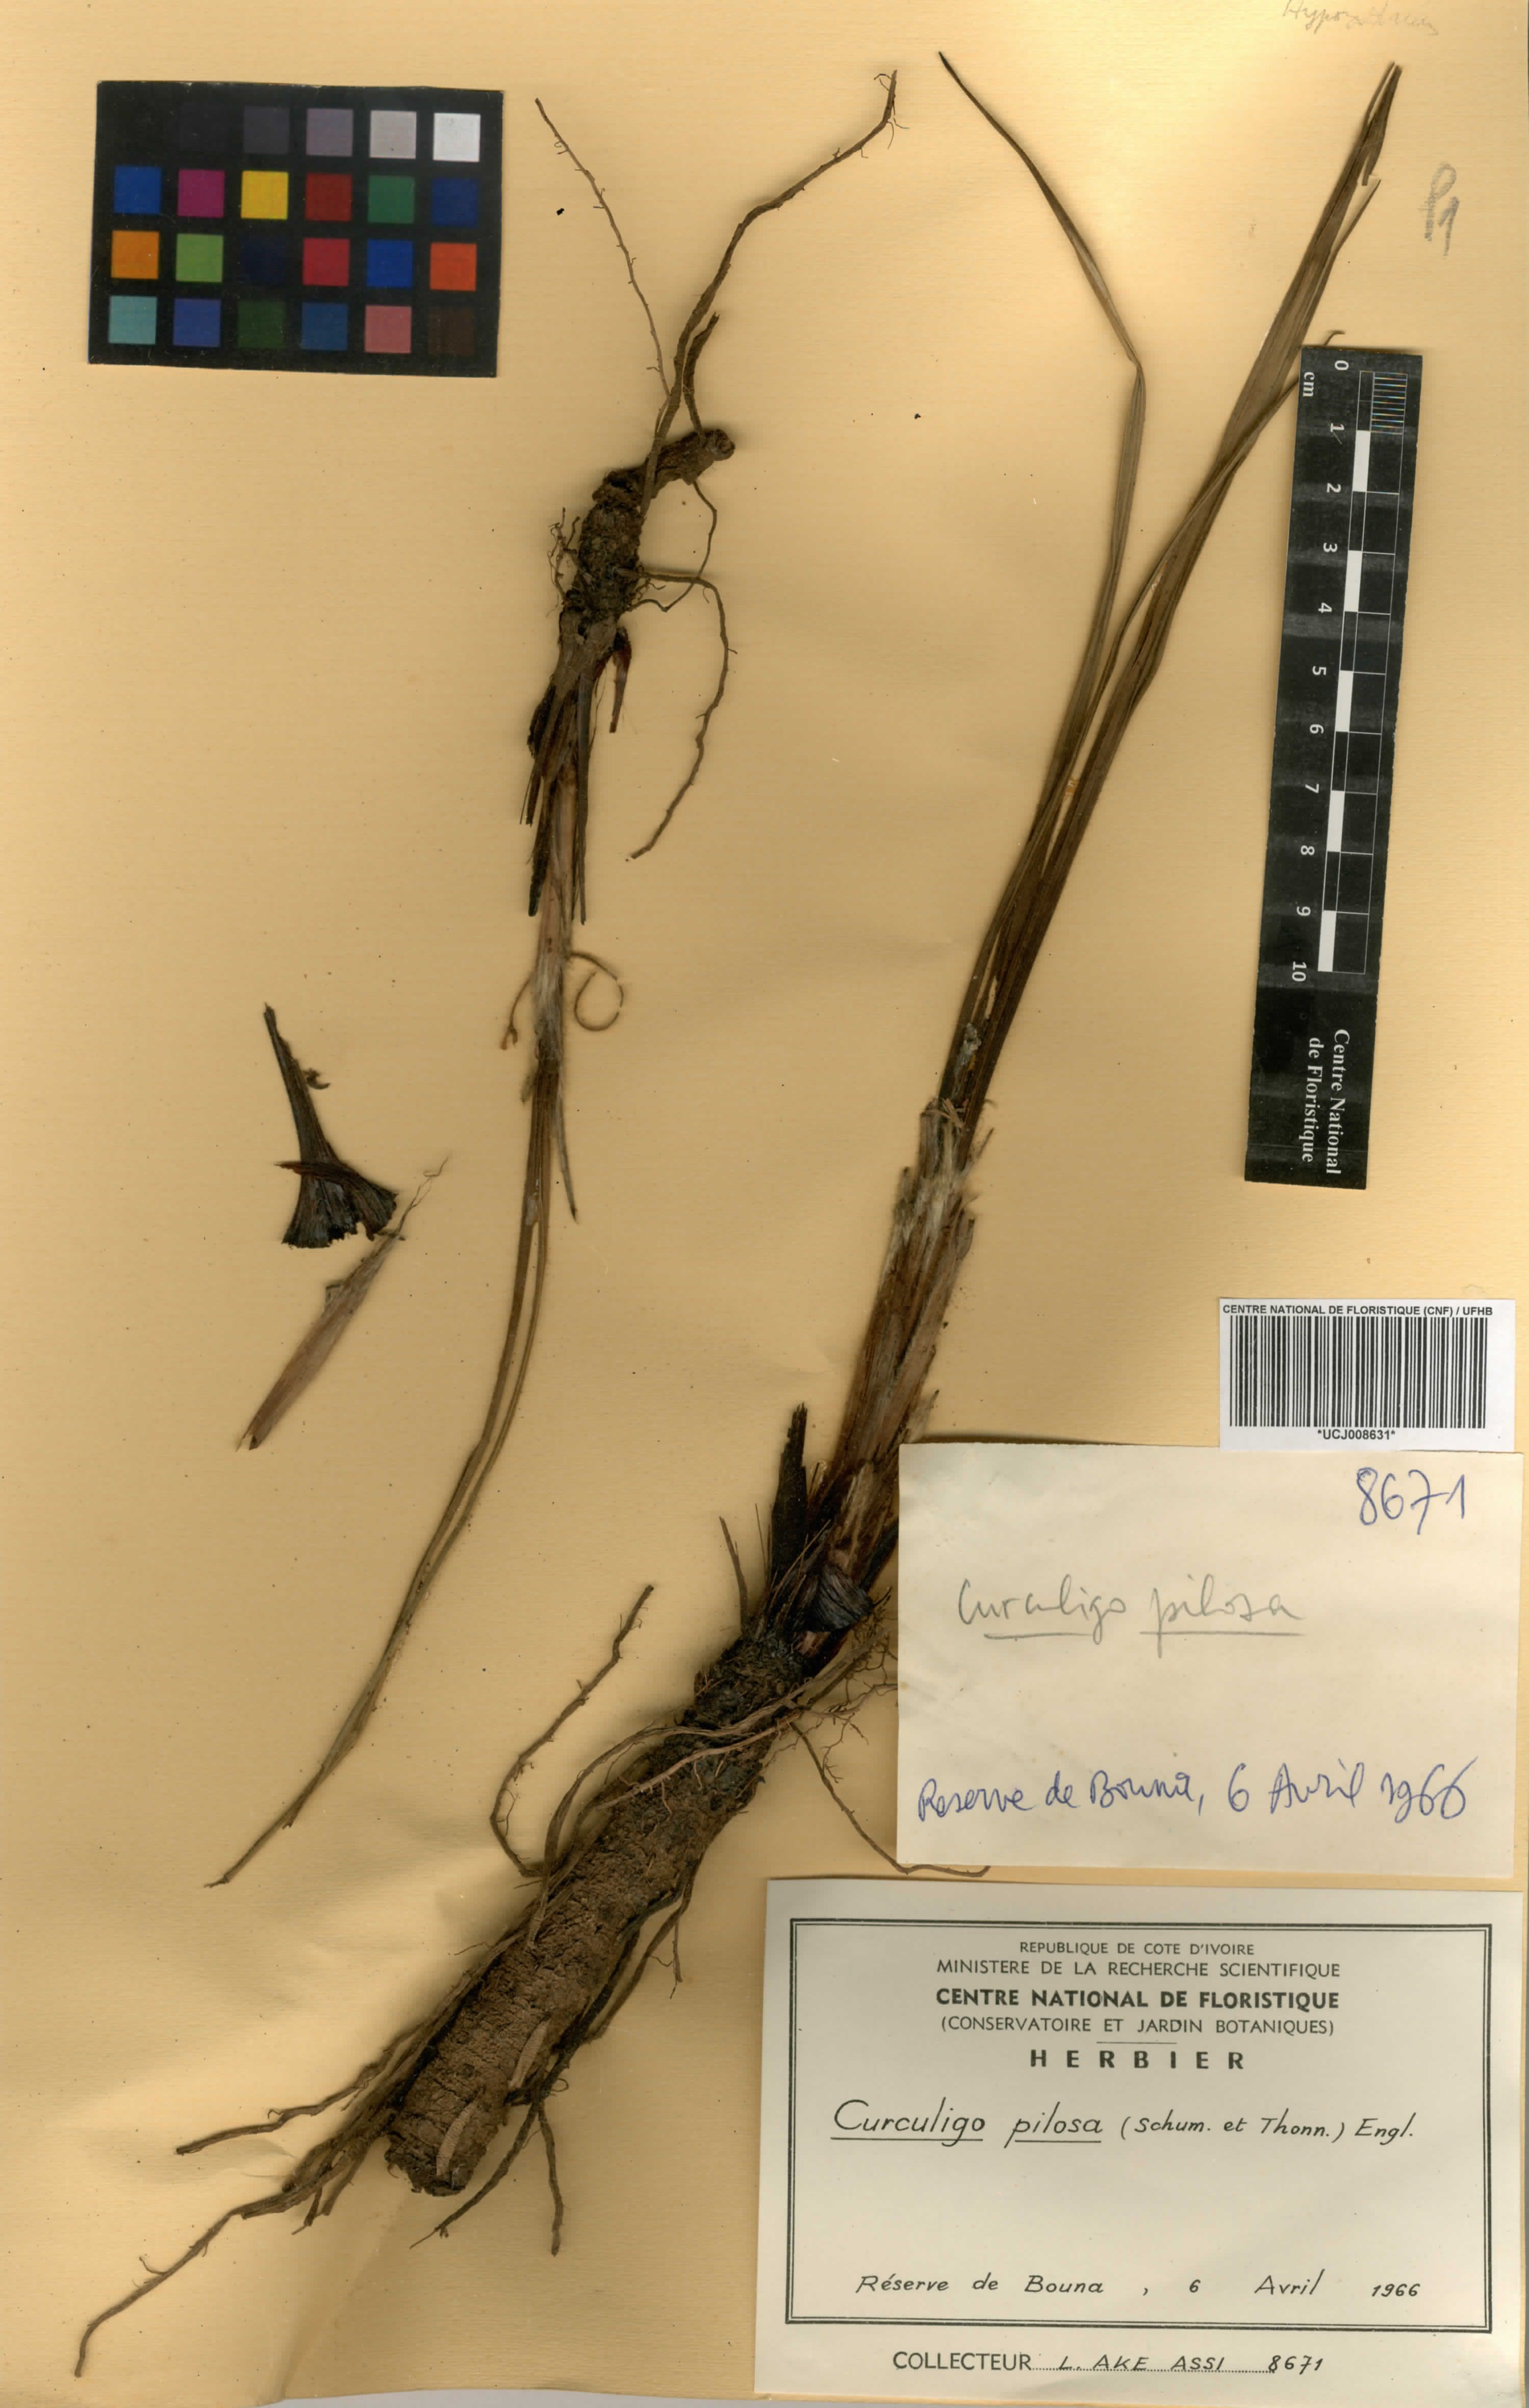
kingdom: Plantae
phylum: Tracheophyta
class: Liliopsida
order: Asparagales
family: Hypoxidaceae
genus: Curculigo
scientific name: Curculigo pilosa
